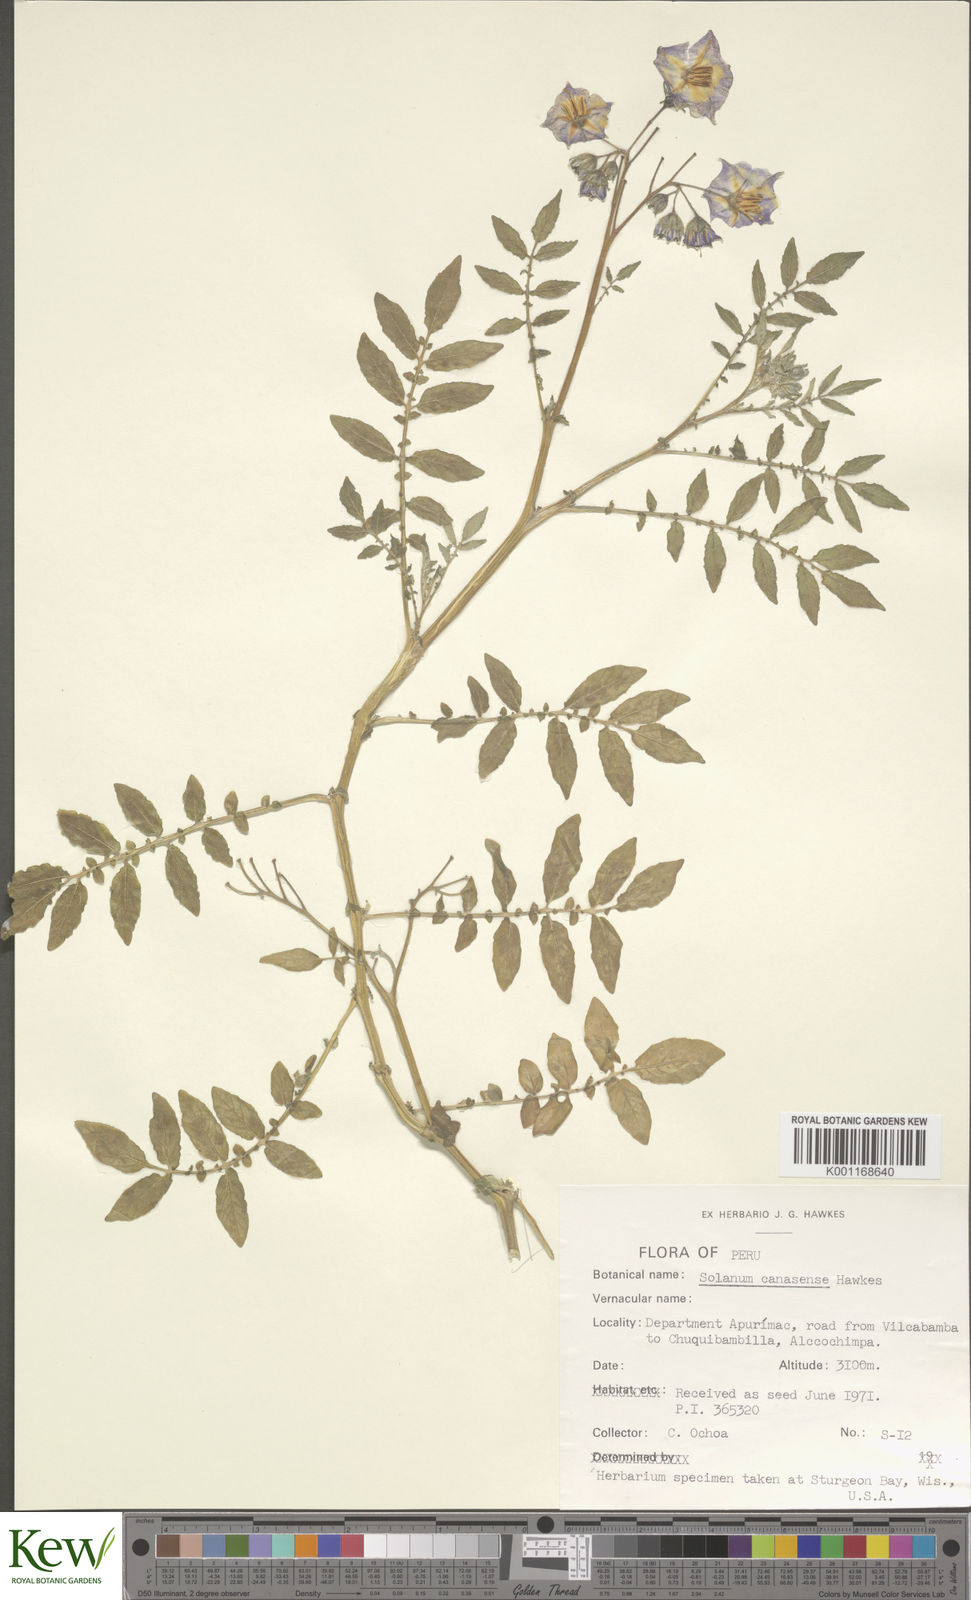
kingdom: Plantae
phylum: Tracheophyta
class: Magnoliopsida
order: Solanales
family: Solanaceae
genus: Solanum
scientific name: Solanum candolleanum
